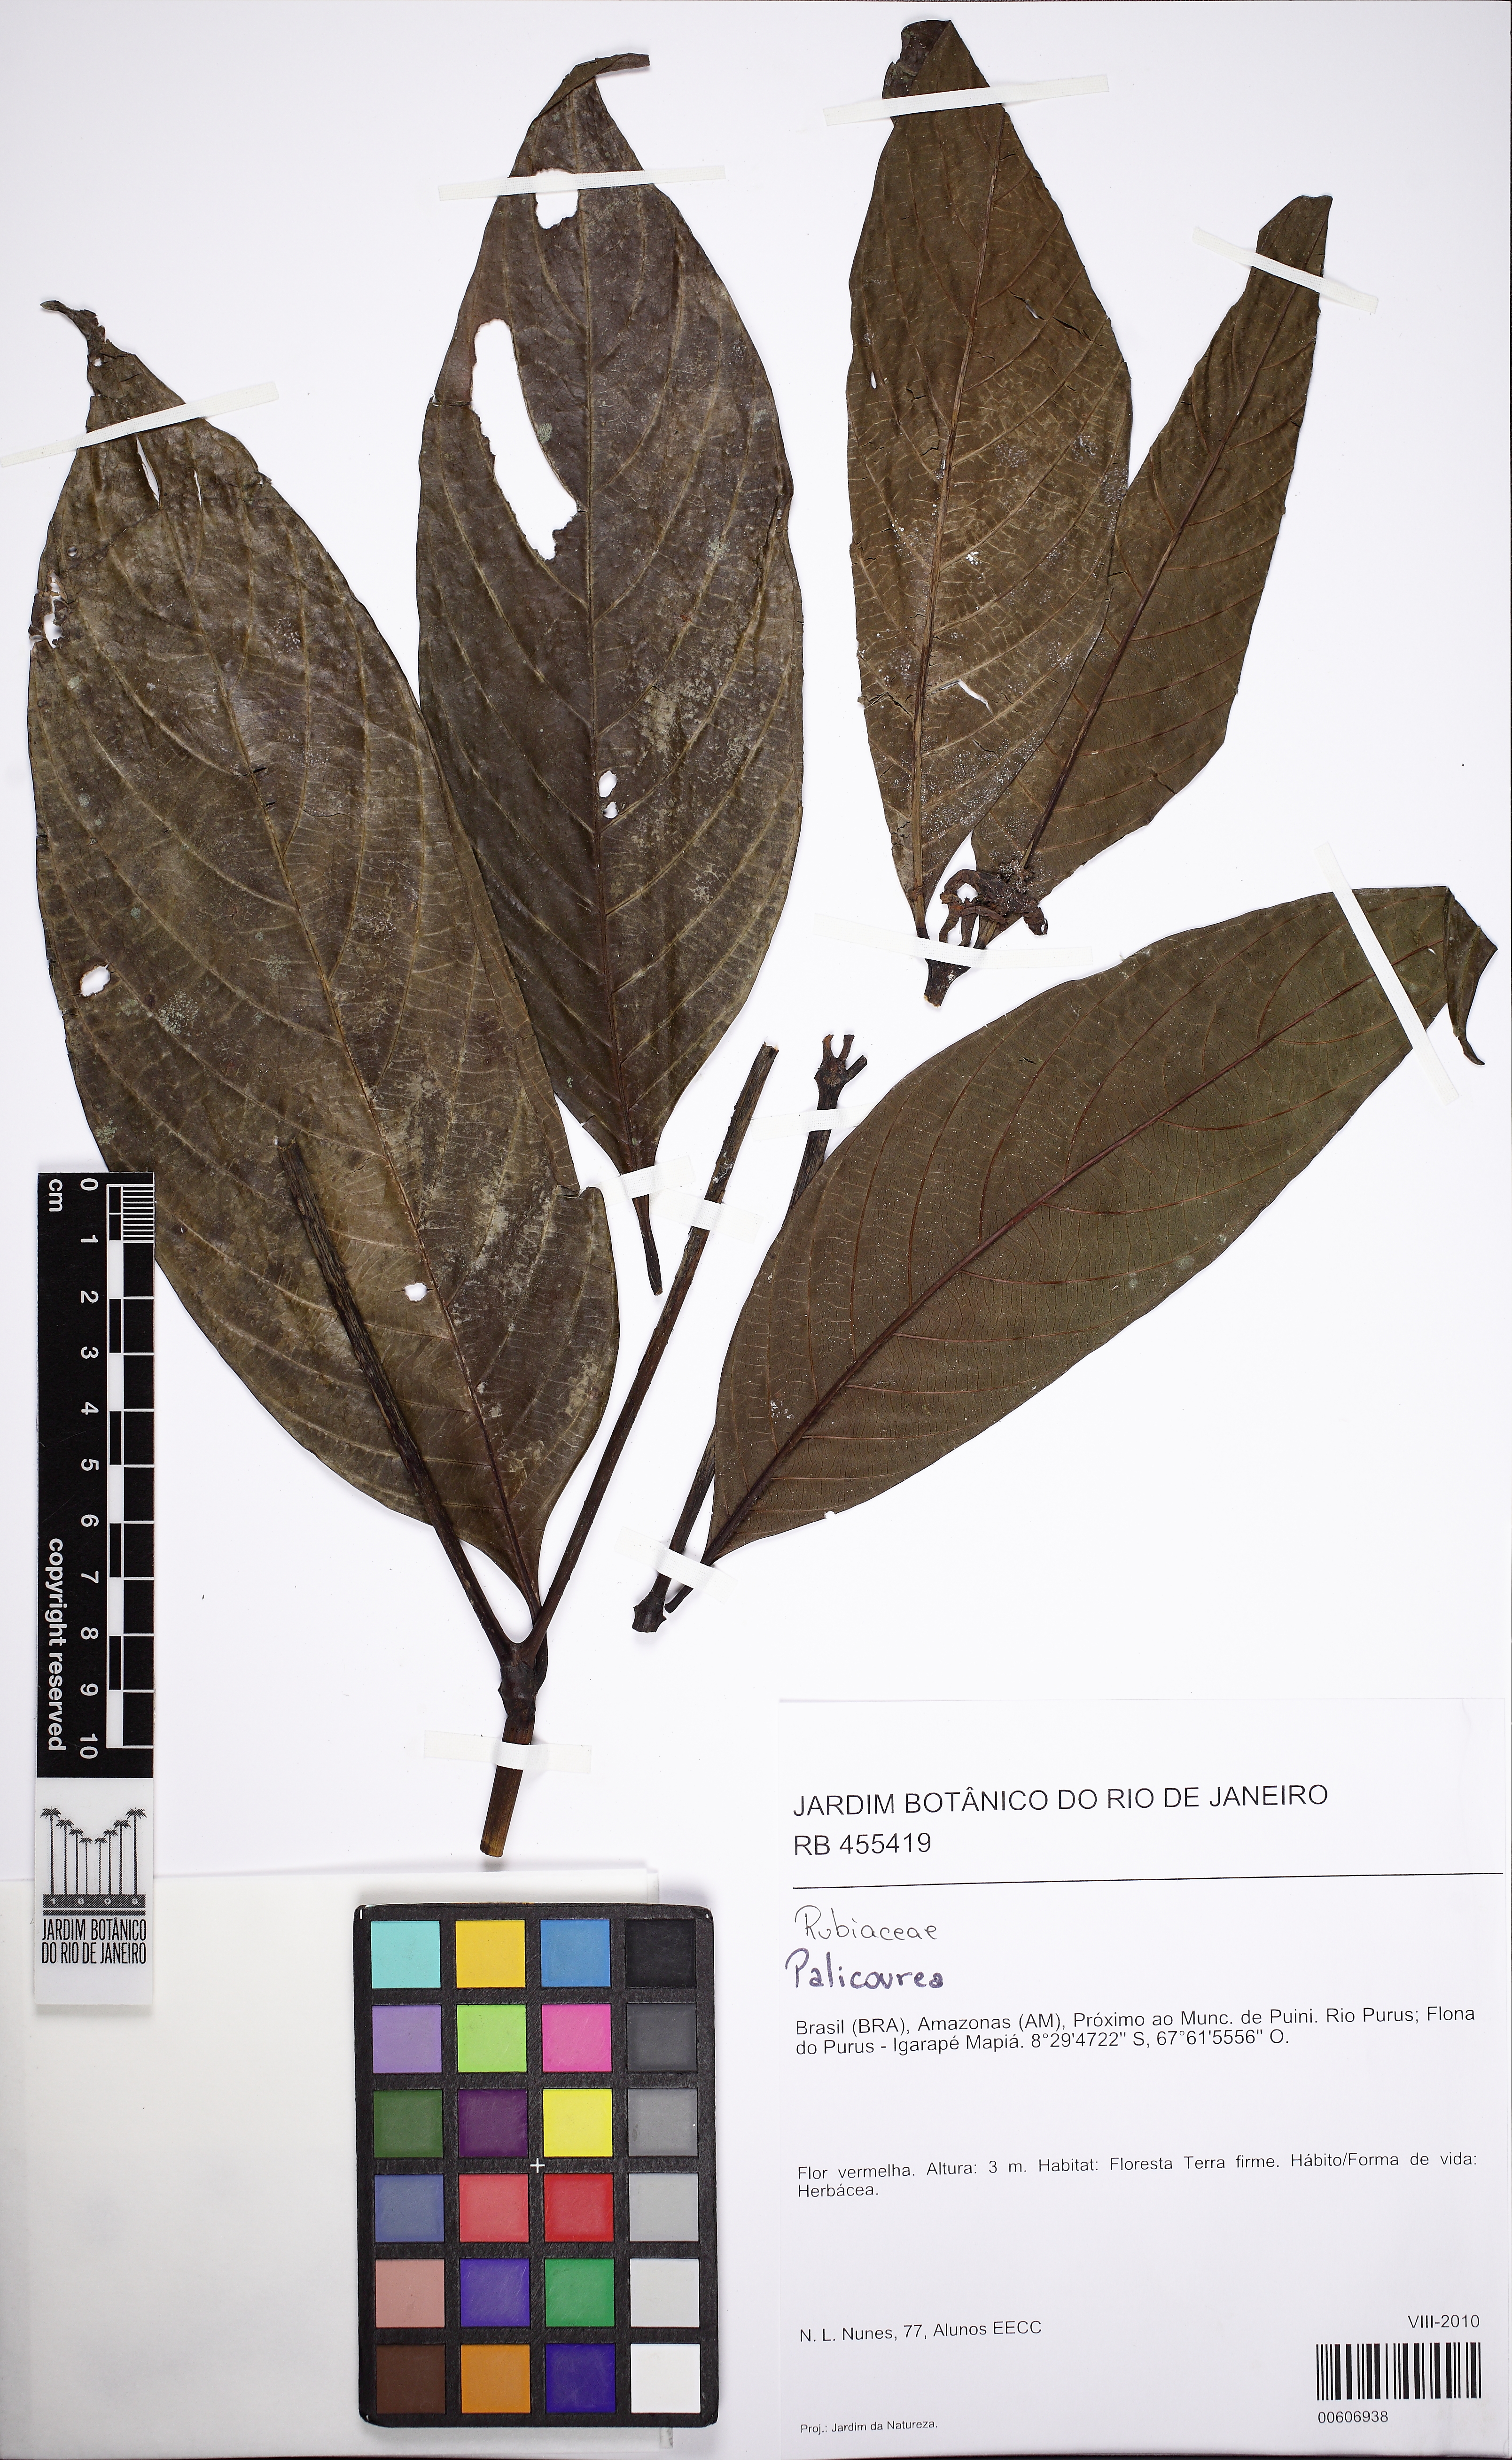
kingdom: Plantae
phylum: Tracheophyta
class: Magnoliopsida
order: Gentianales
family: Rubiaceae
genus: Palicourea
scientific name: Palicourea
